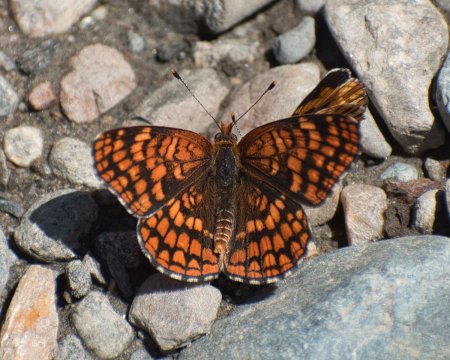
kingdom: Animalia
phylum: Arthropoda
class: Insecta
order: Lepidoptera
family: Nymphalidae
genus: Chlosyne
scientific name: Chlosyne palla
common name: Northern Checkerspot
